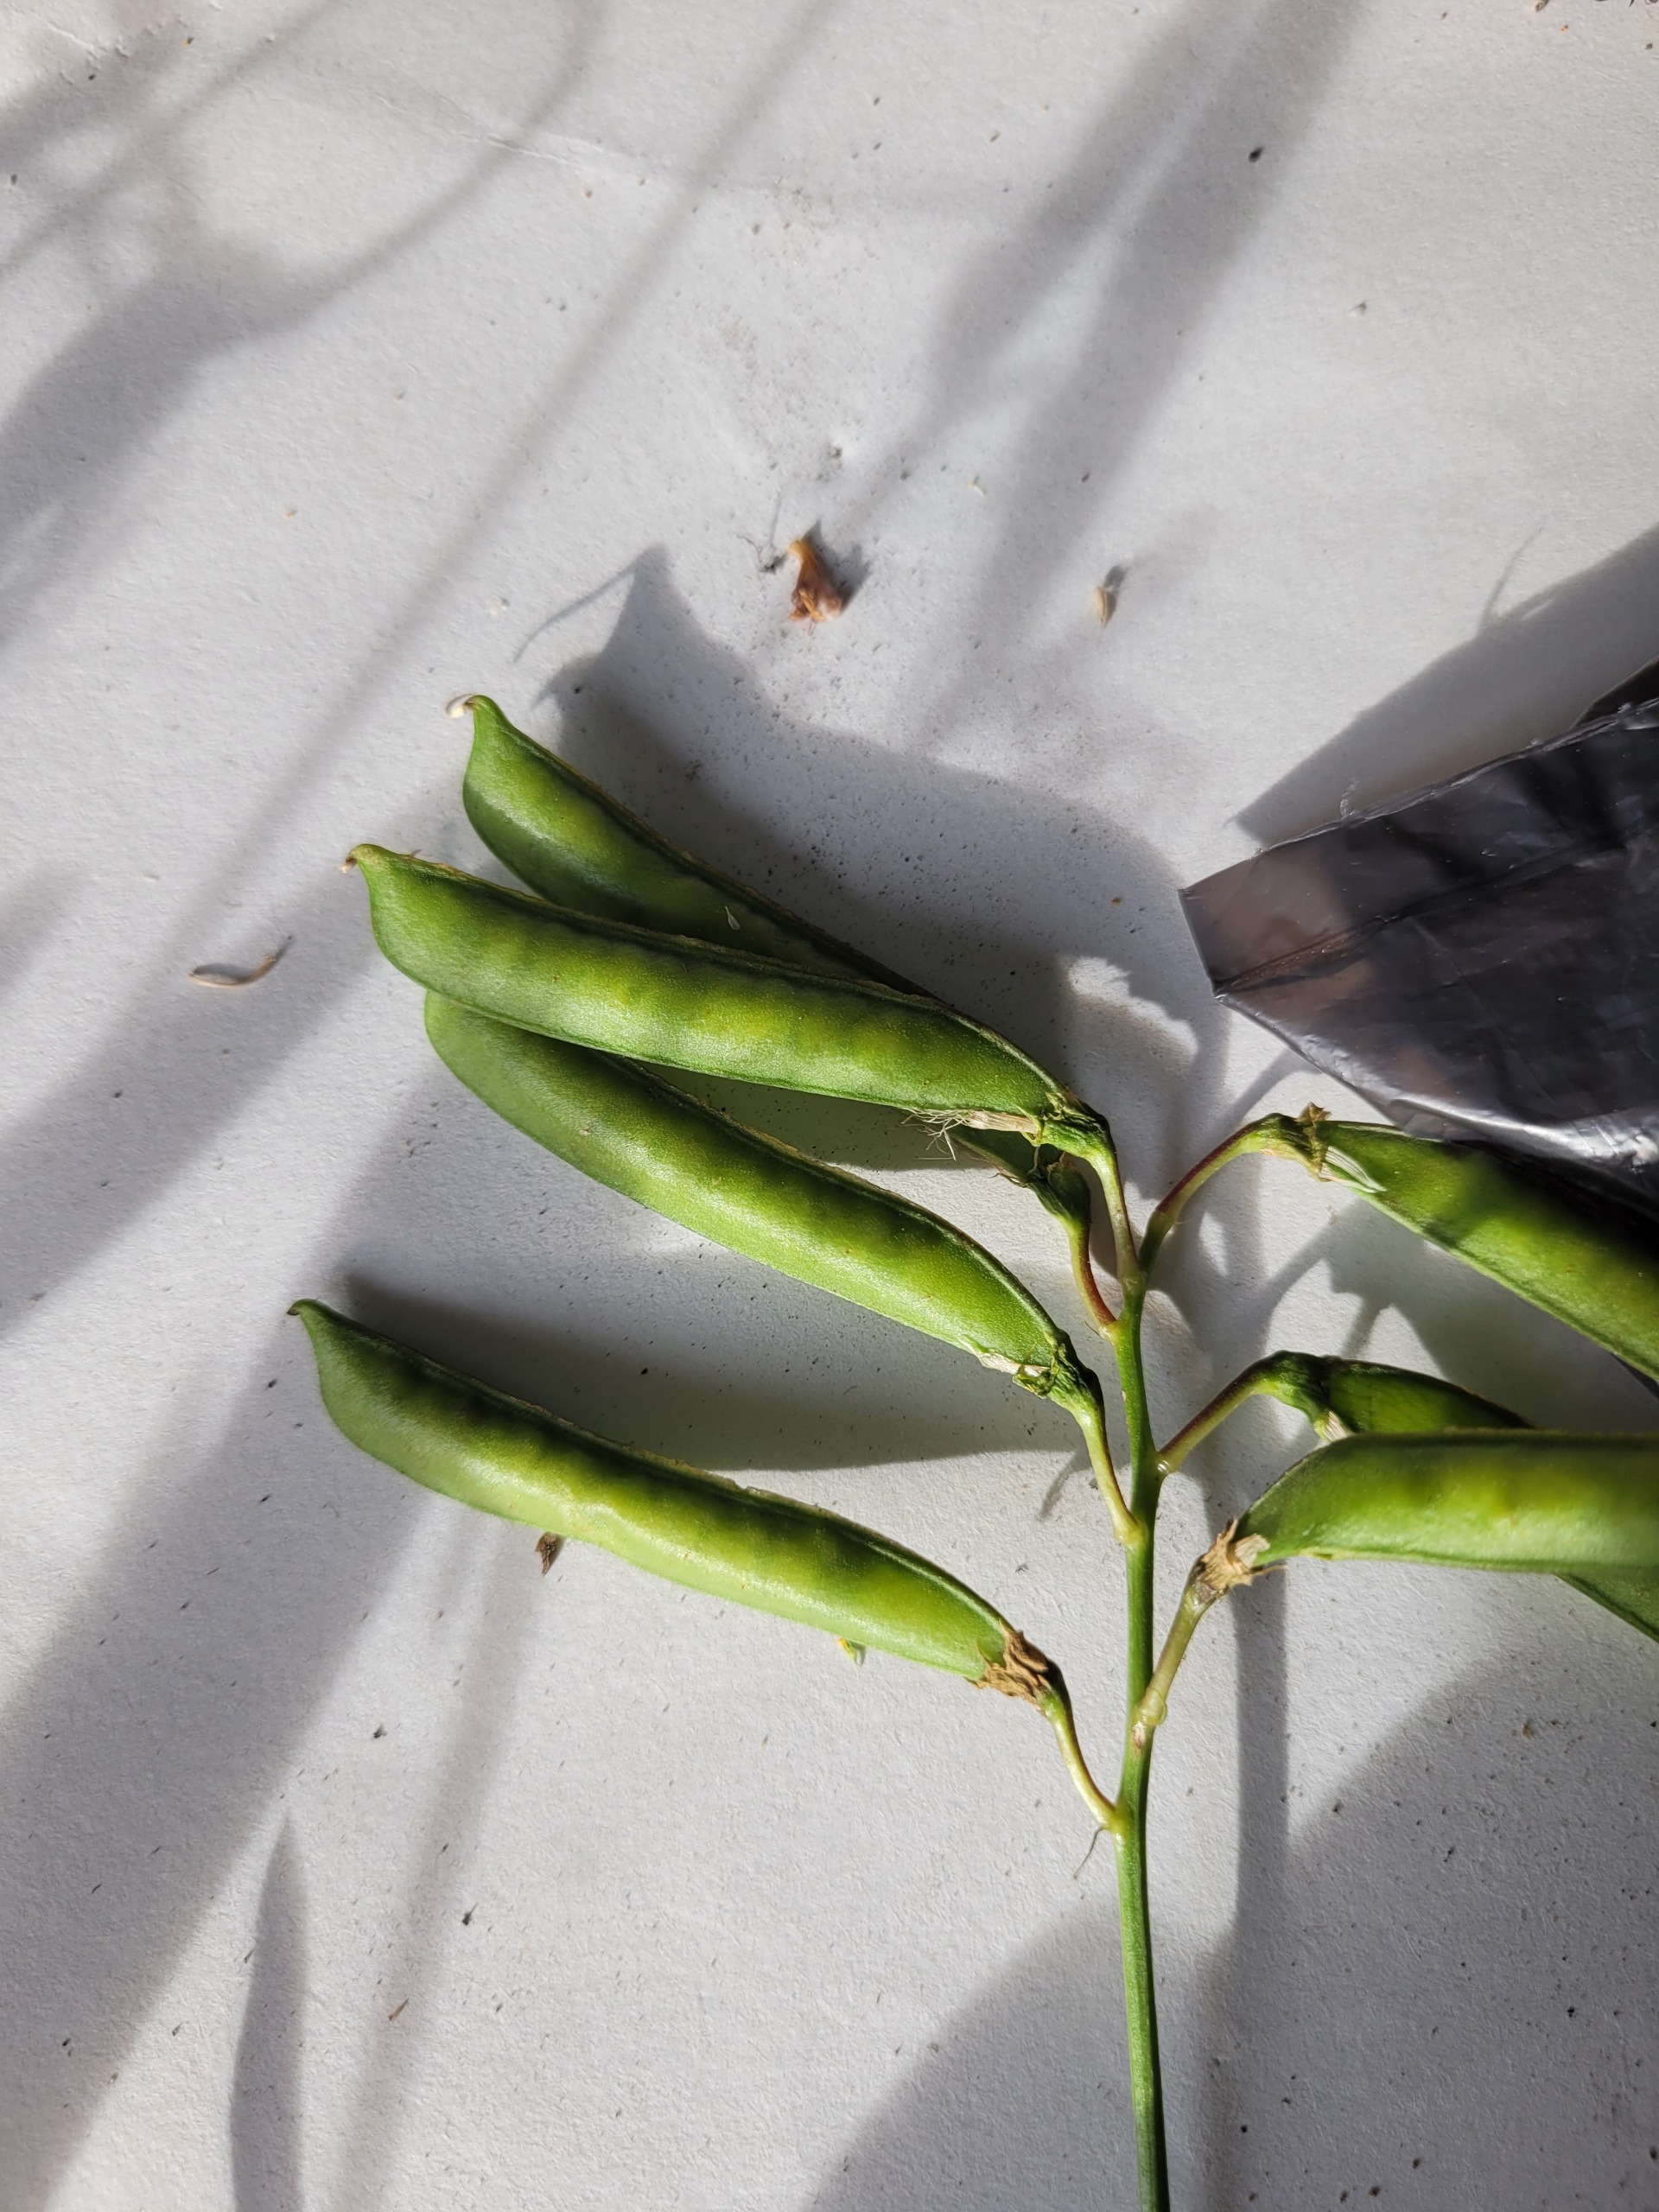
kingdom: Plantae
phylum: Tracheophyta
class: Magnoliopsida
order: Fabales
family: Fabaceae
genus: Lathyrus
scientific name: Lathyrus sylvestris
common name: Skov-fladbælg
